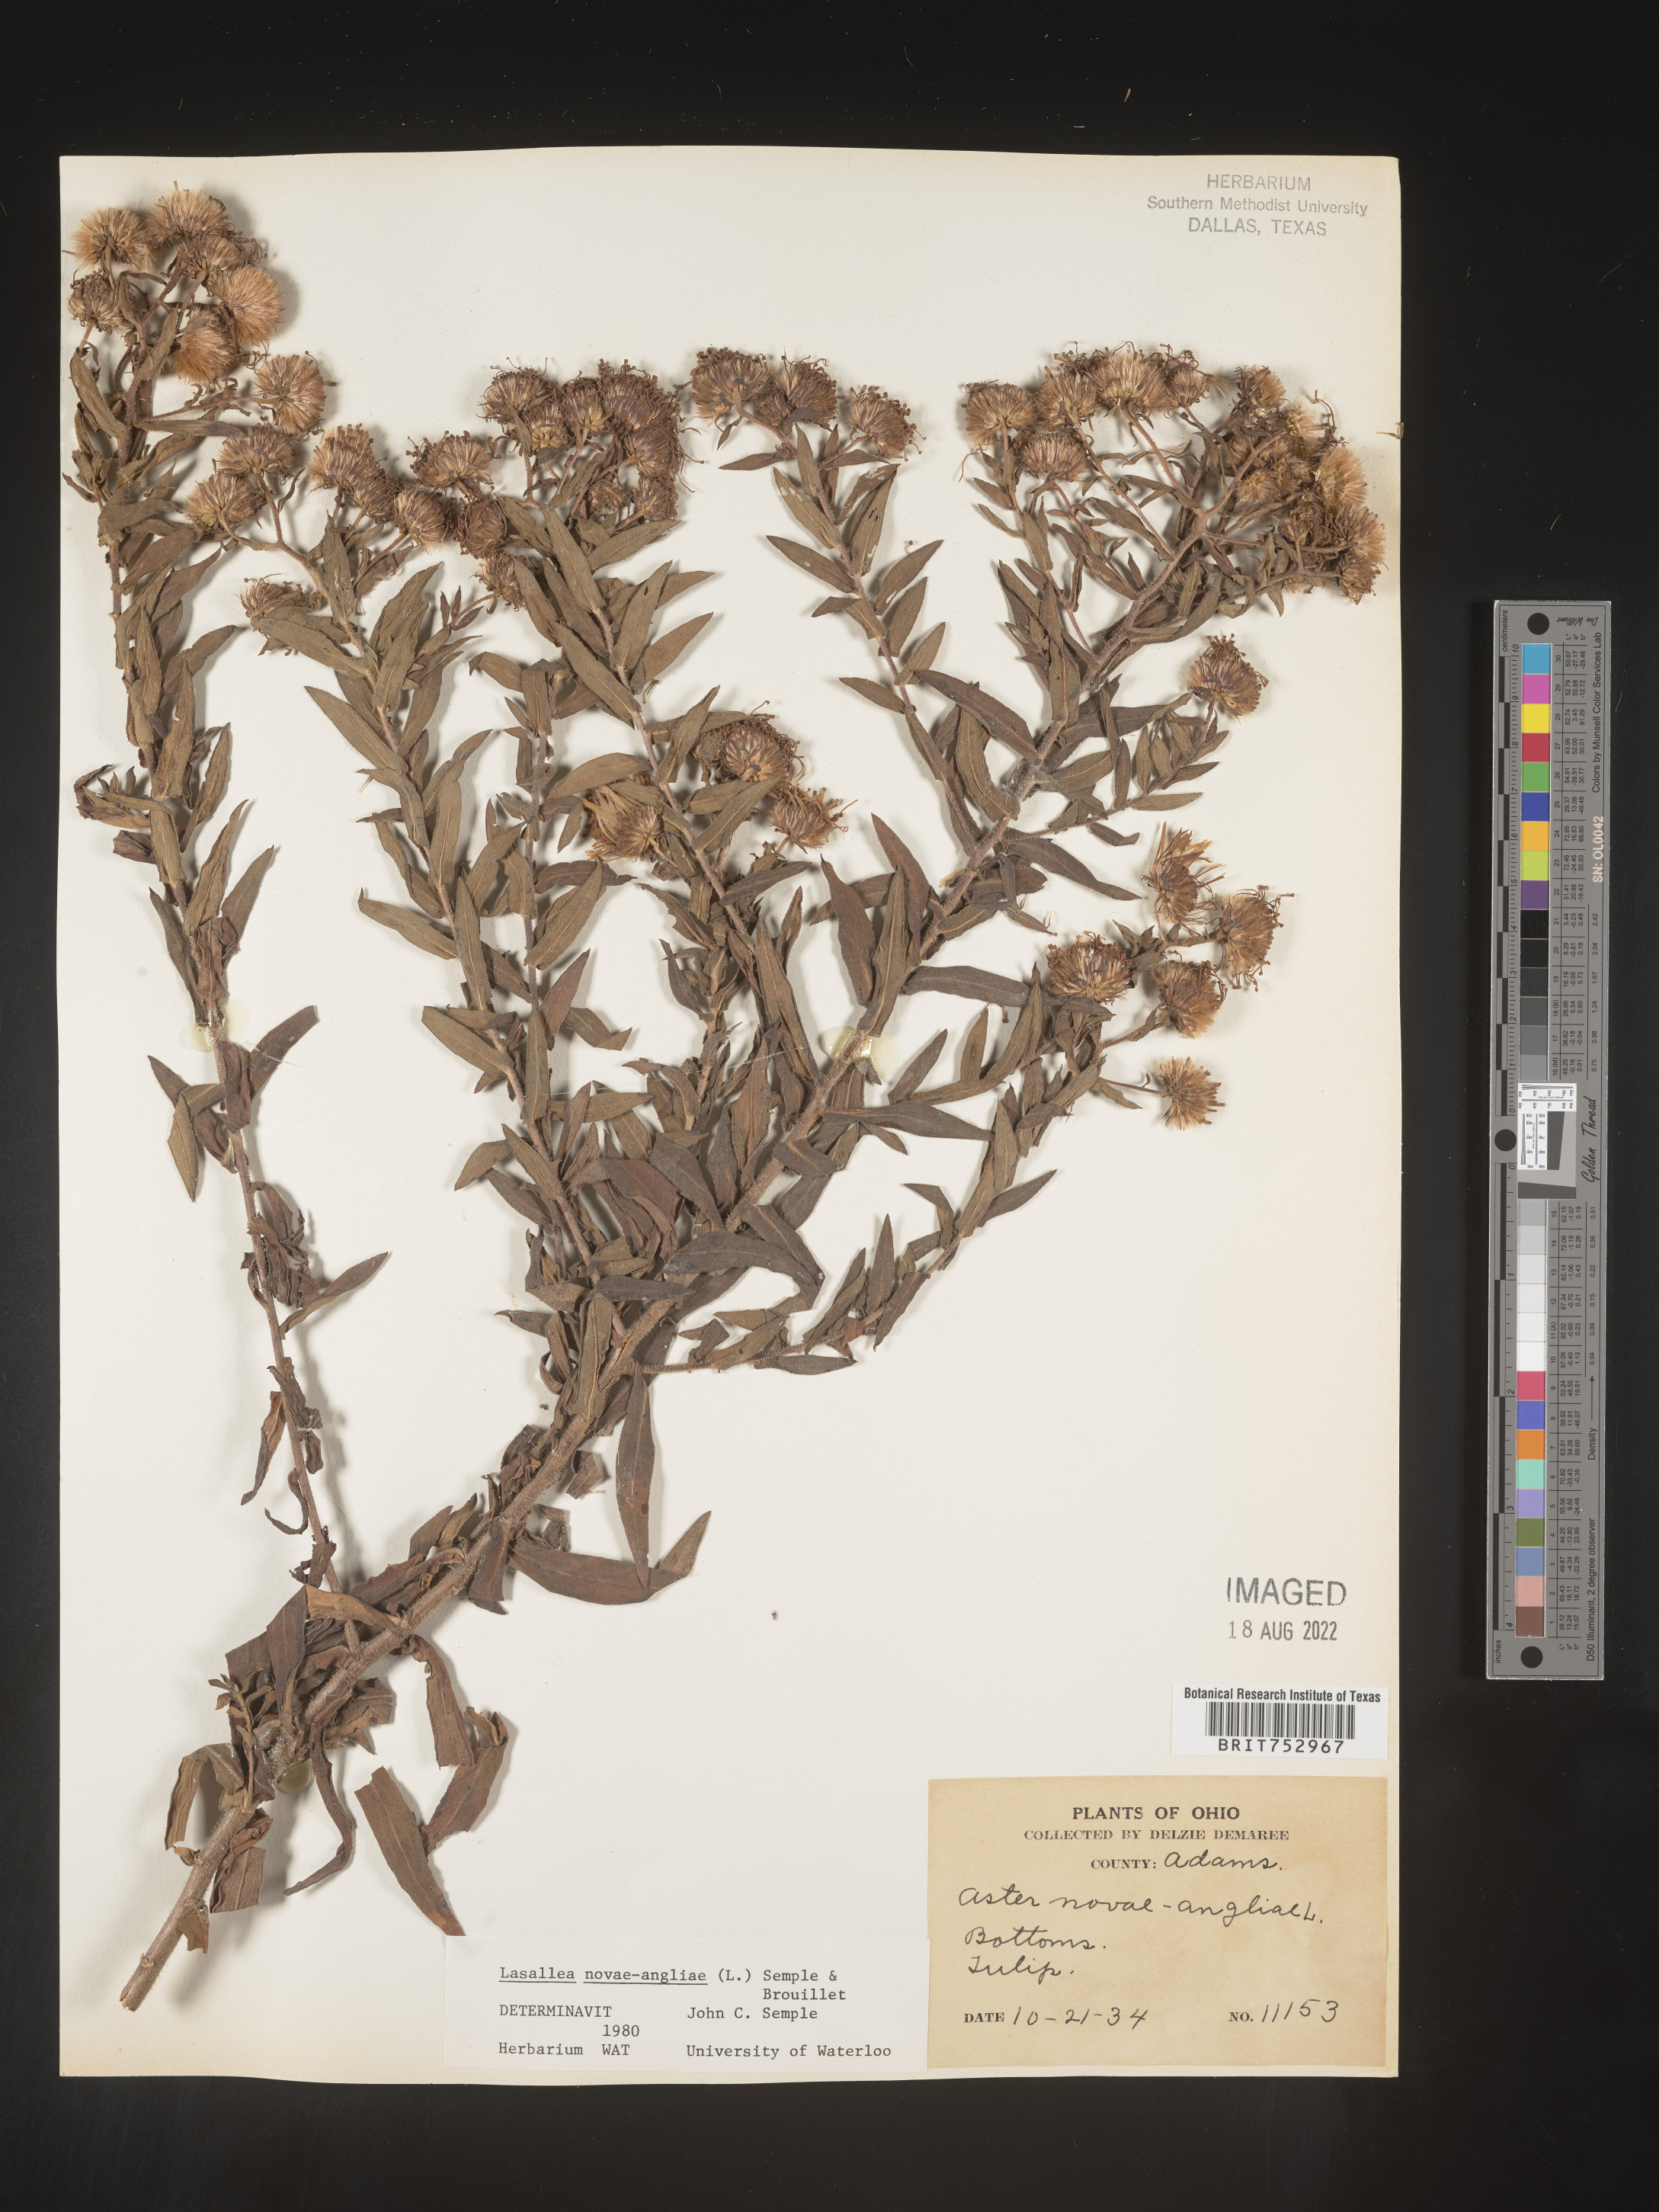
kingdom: Plantae
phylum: Tracheophyta
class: Magnoliopsida
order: Asterales
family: Asteraceae
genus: Symphyotrichum
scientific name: Symphyotrichum novae-angliae
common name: Michaelmas daisy
